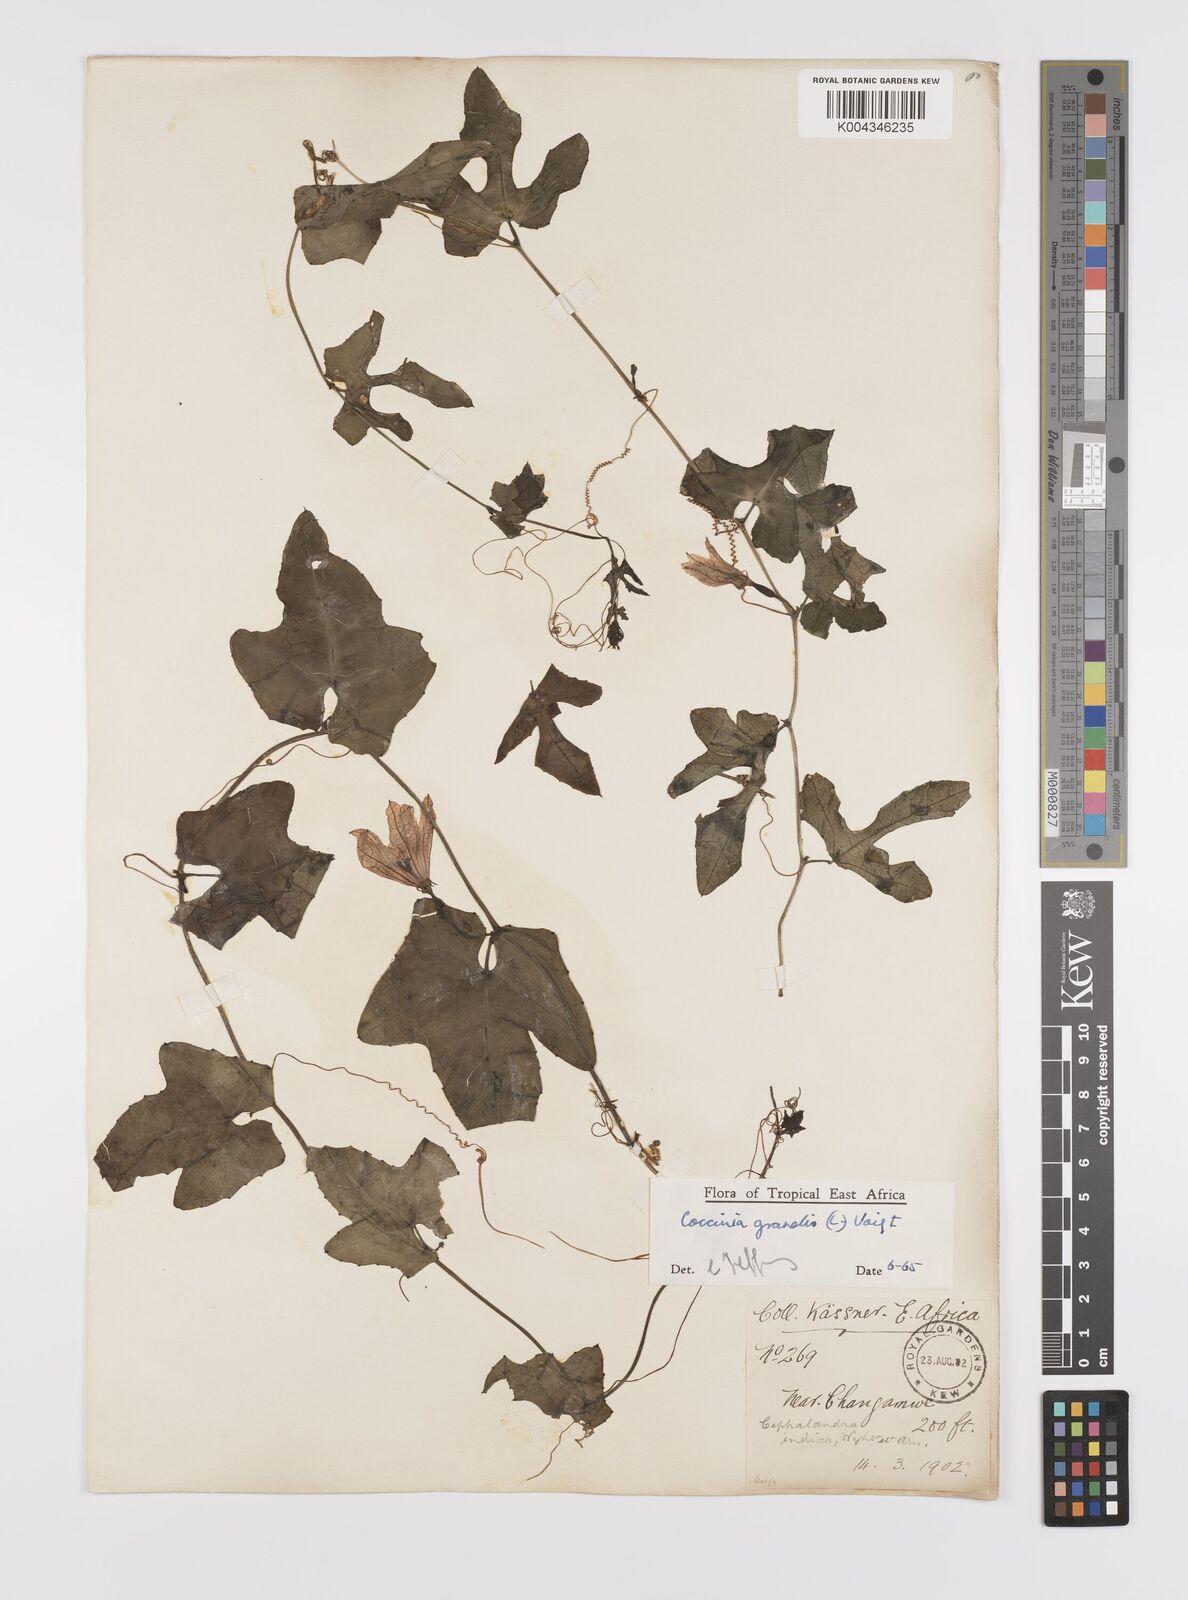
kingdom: Plantae
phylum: Tracheophyta
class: Magnoliopsida
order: Cucurbitales
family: Cucurbitaceae
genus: Coccinia
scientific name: Coccinia grandis
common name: Ivy gourd
